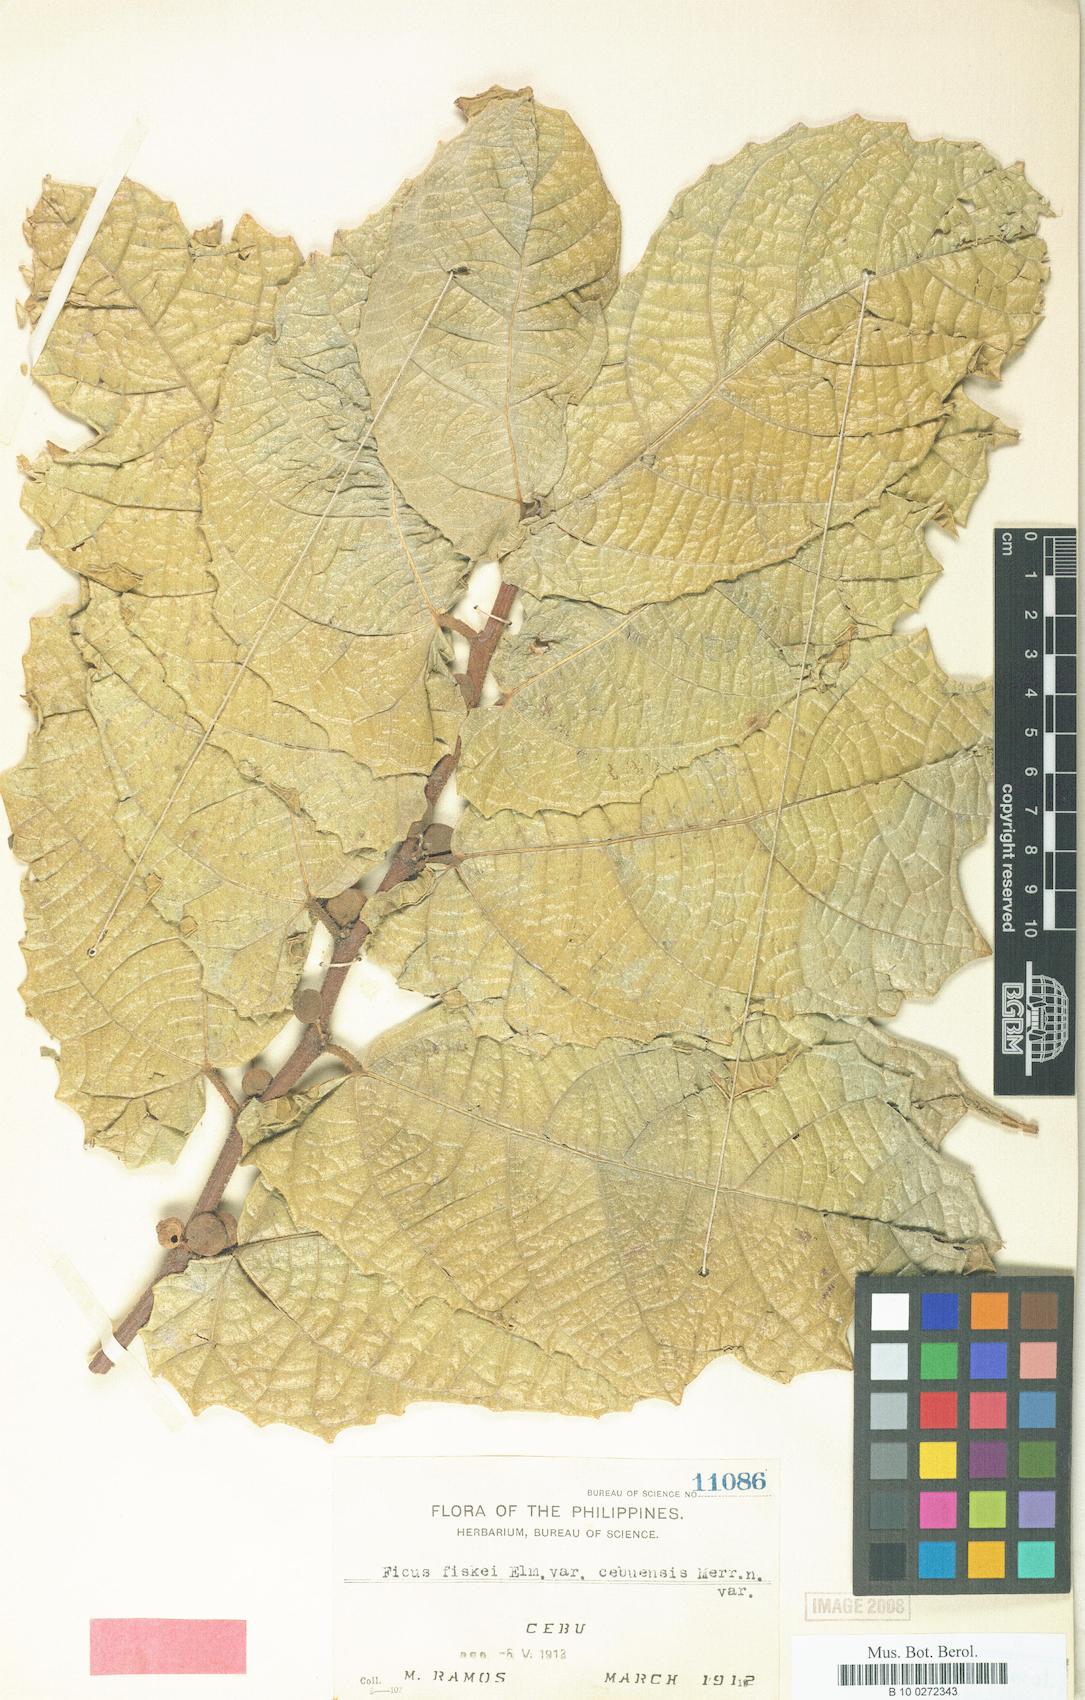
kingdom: Plantae
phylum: Tracheophyta
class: Magnoliopsida
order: Rosales
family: Moraceae
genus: Ficus
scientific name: Ficus fiskei
